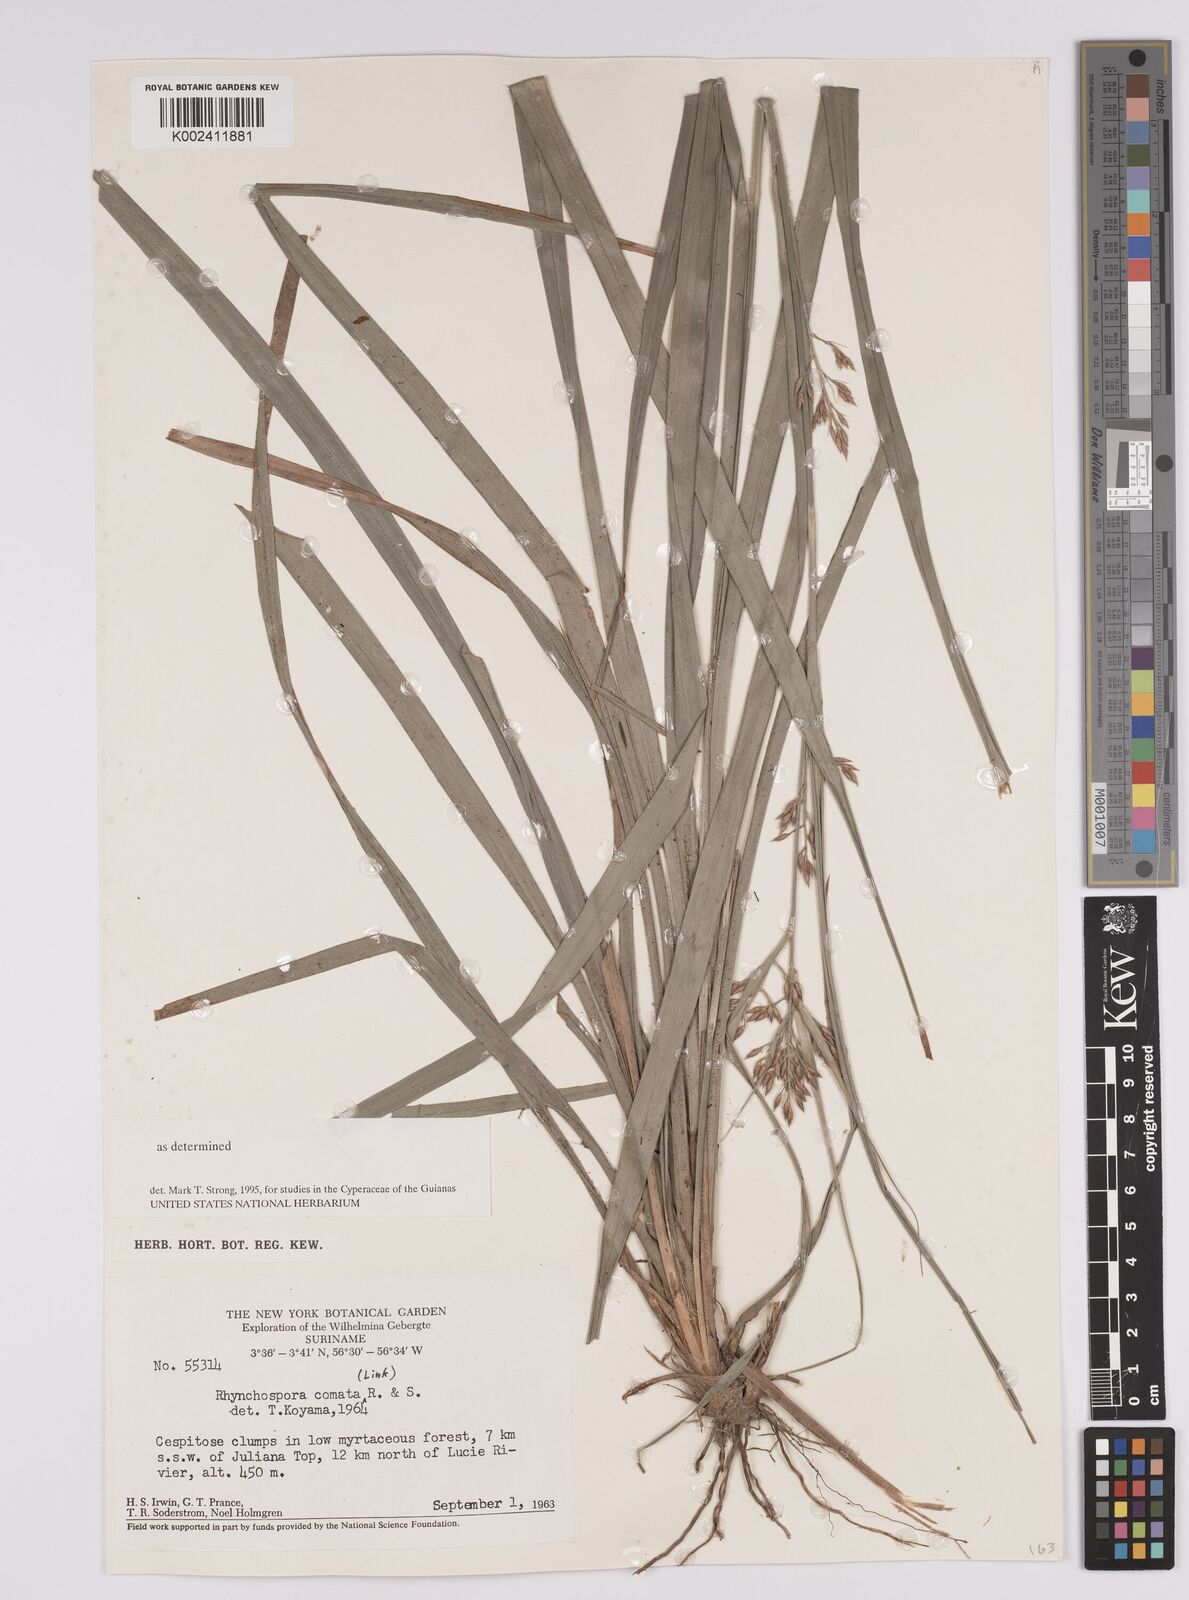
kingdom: Plantae
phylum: Tracheophyta
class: Liliopsida
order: Poales
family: Cyperaceae
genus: Rhynchospora
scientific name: Rhynchospora comata
